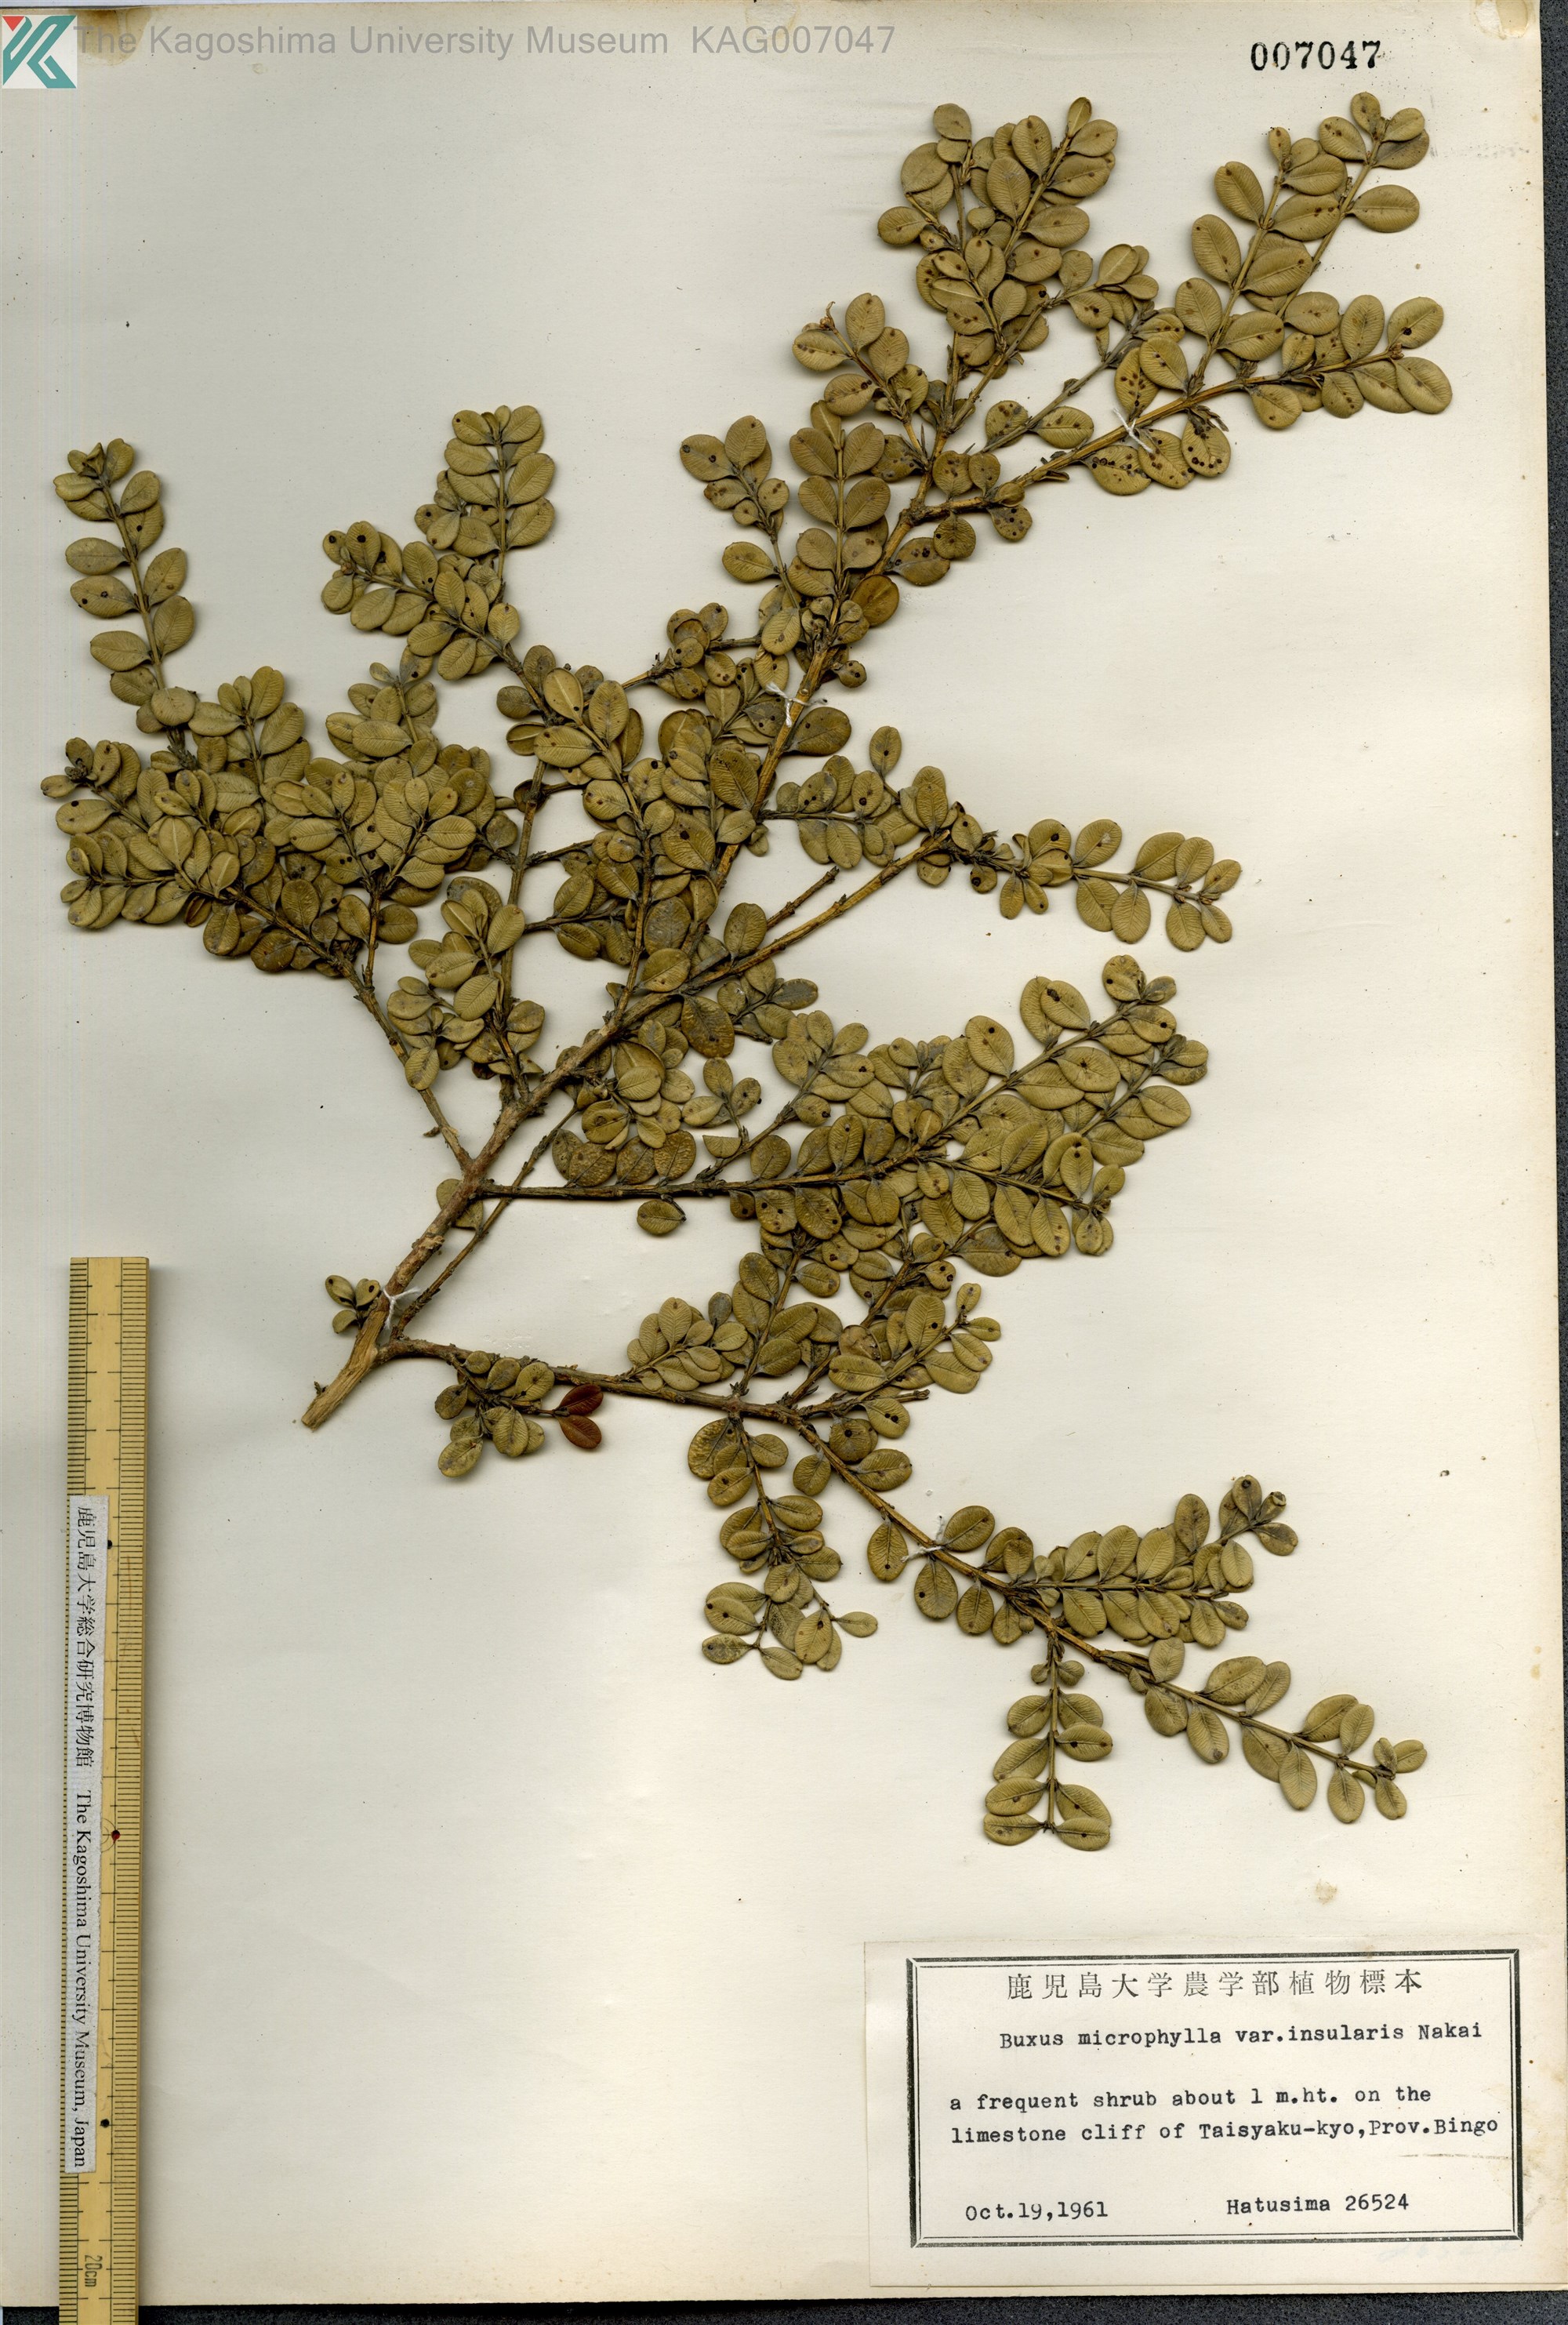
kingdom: Plantae
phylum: Tracheophyta
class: Magnoliopsida
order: Buxales
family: Buxaceae
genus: Buxus
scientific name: Buxus sinica
